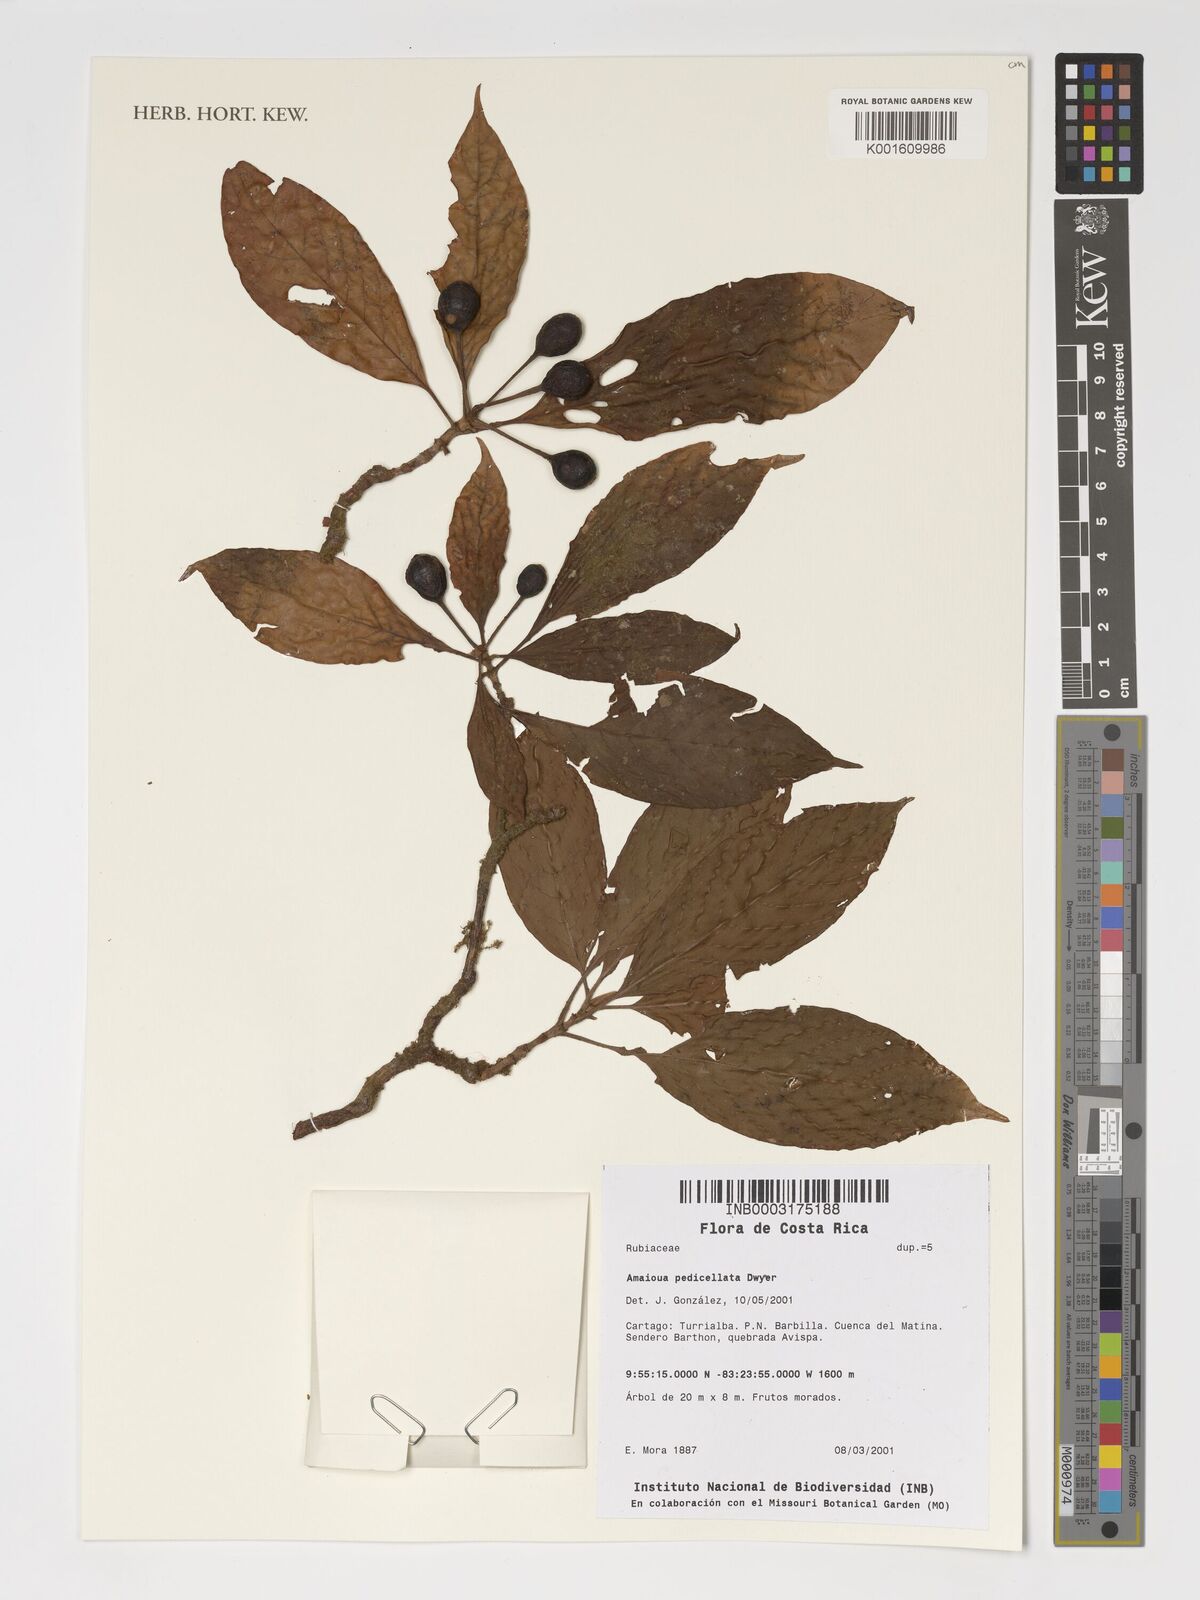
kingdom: Plantae
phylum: Tracheophyta
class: Magnoliopsida
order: Gentianales
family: Rubiaceae
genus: Amaioua
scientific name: Amaioua pedicellata
